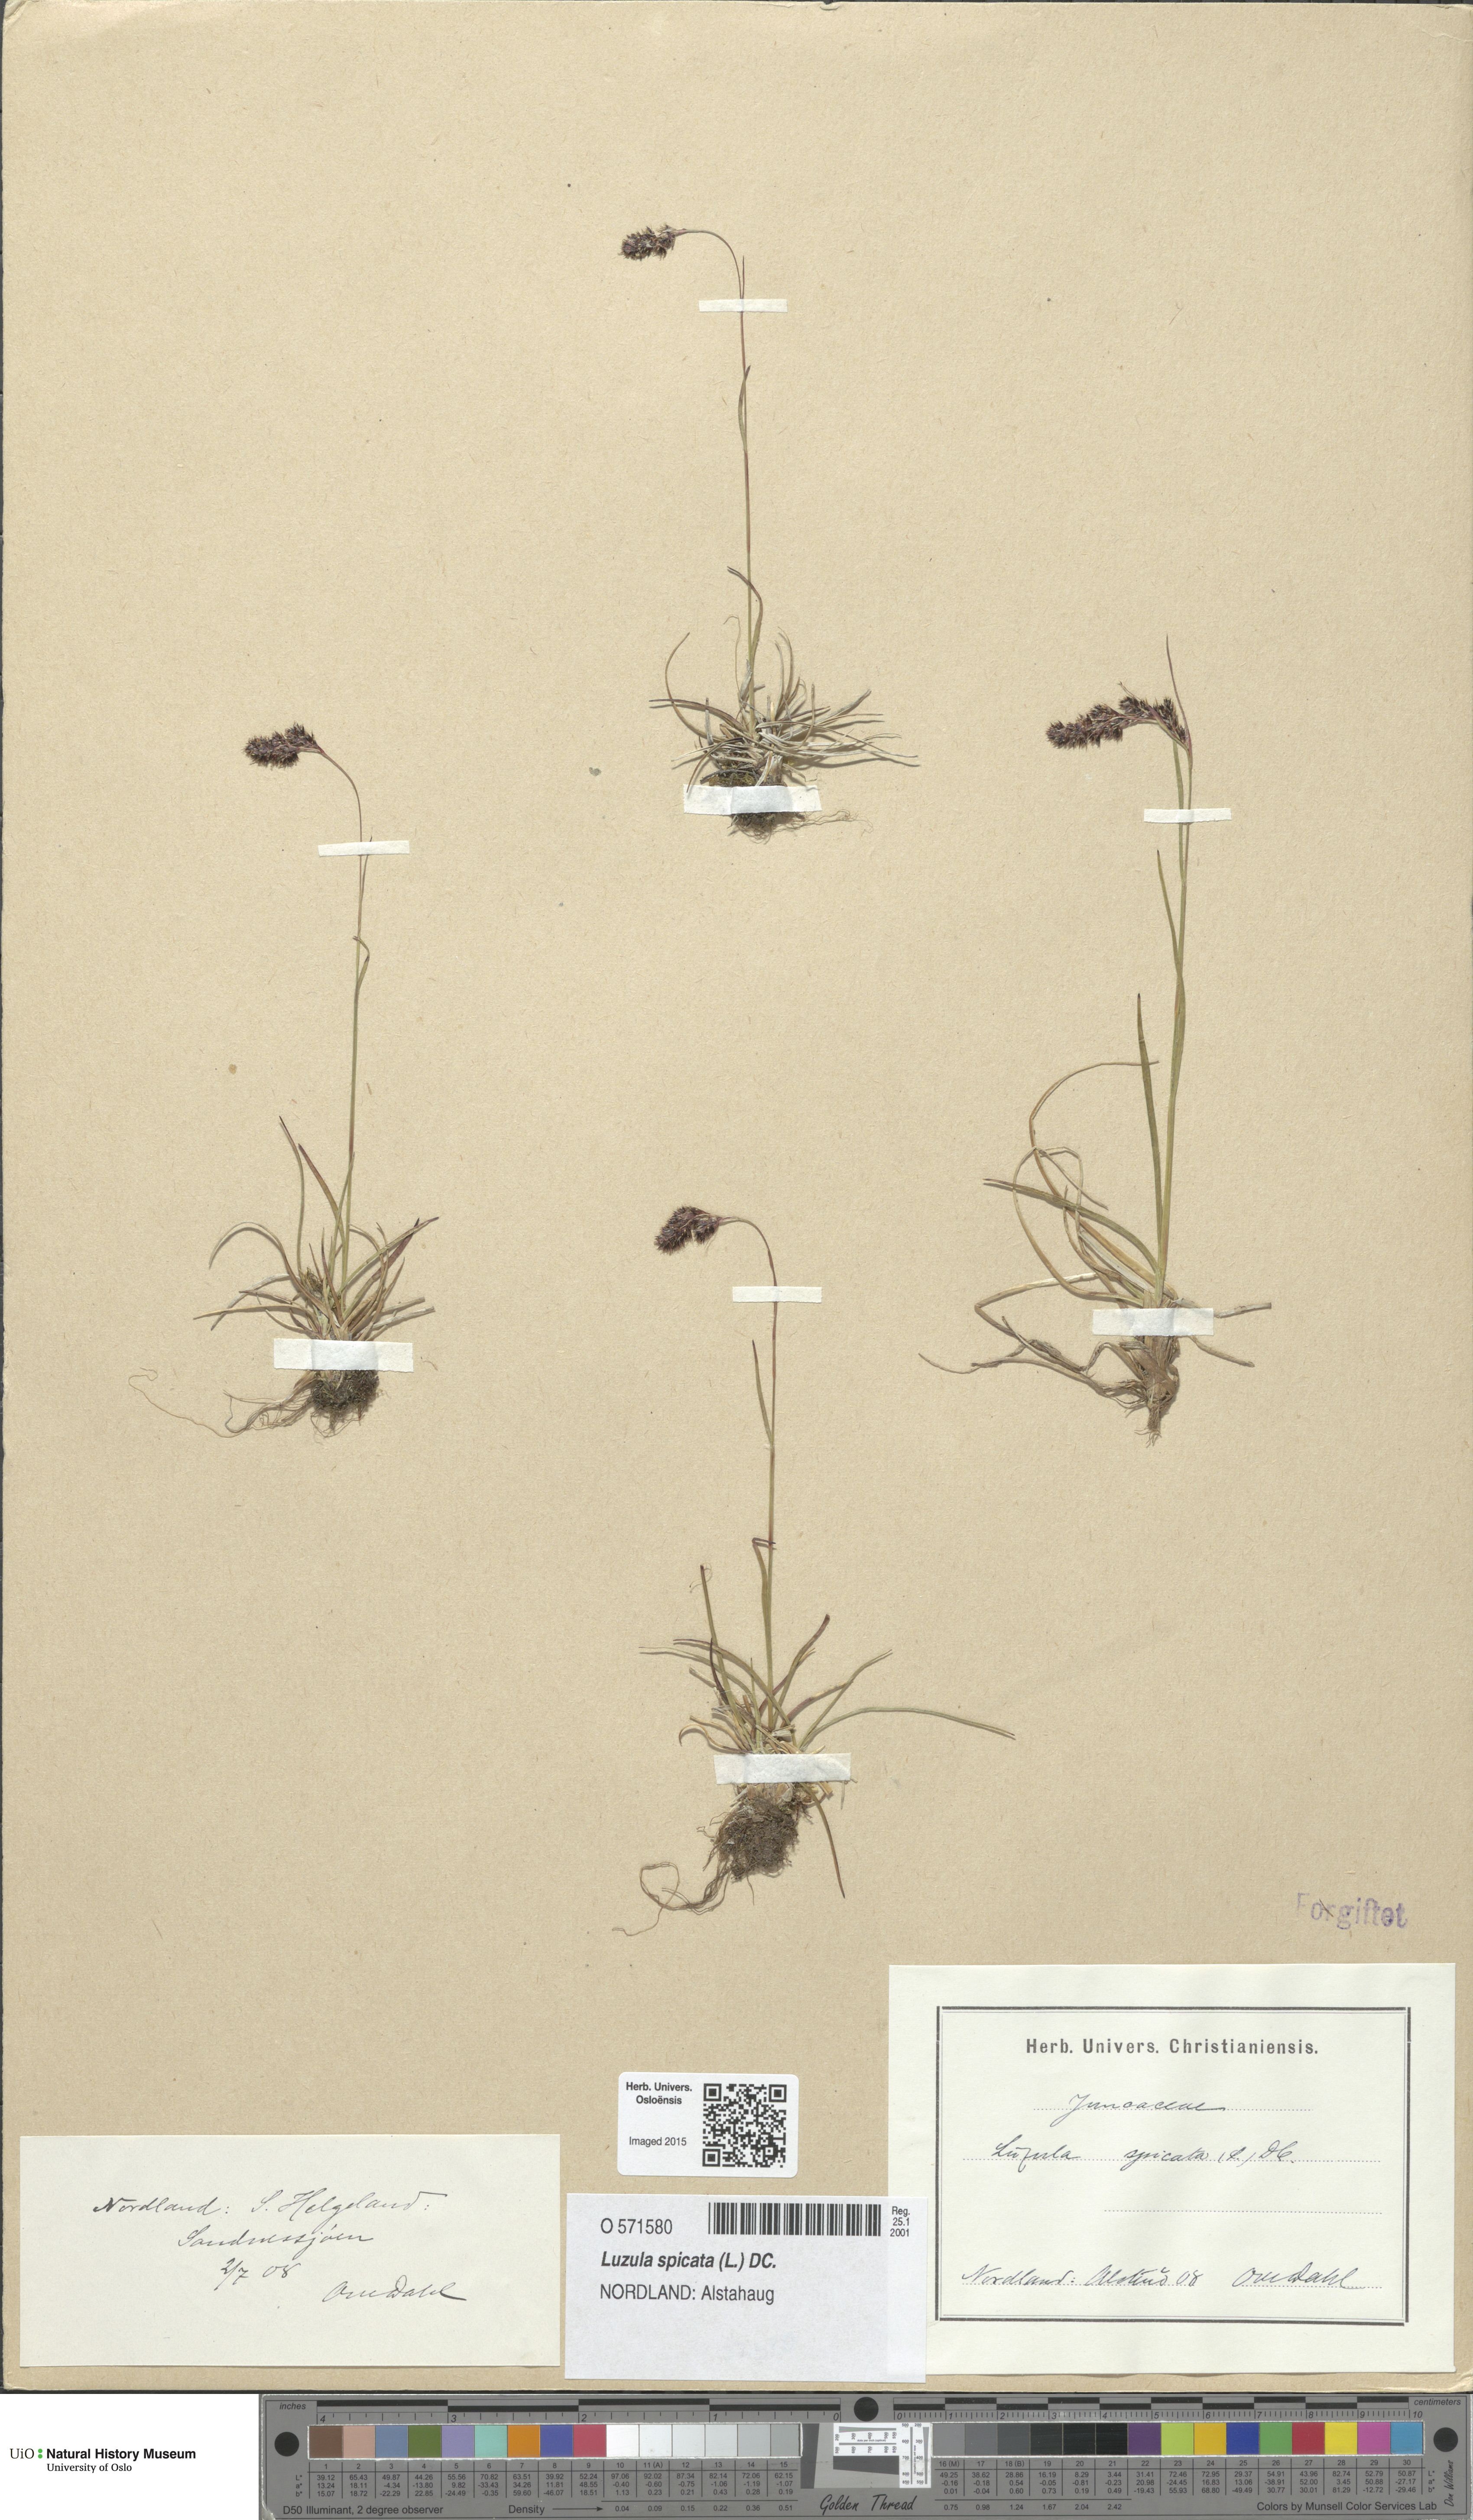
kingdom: Plantae
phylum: Tracheophyta
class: Liliopsida
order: Poales
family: Juncaceae
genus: Luzula
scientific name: Luzula spicata
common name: Spiked wood-rush
